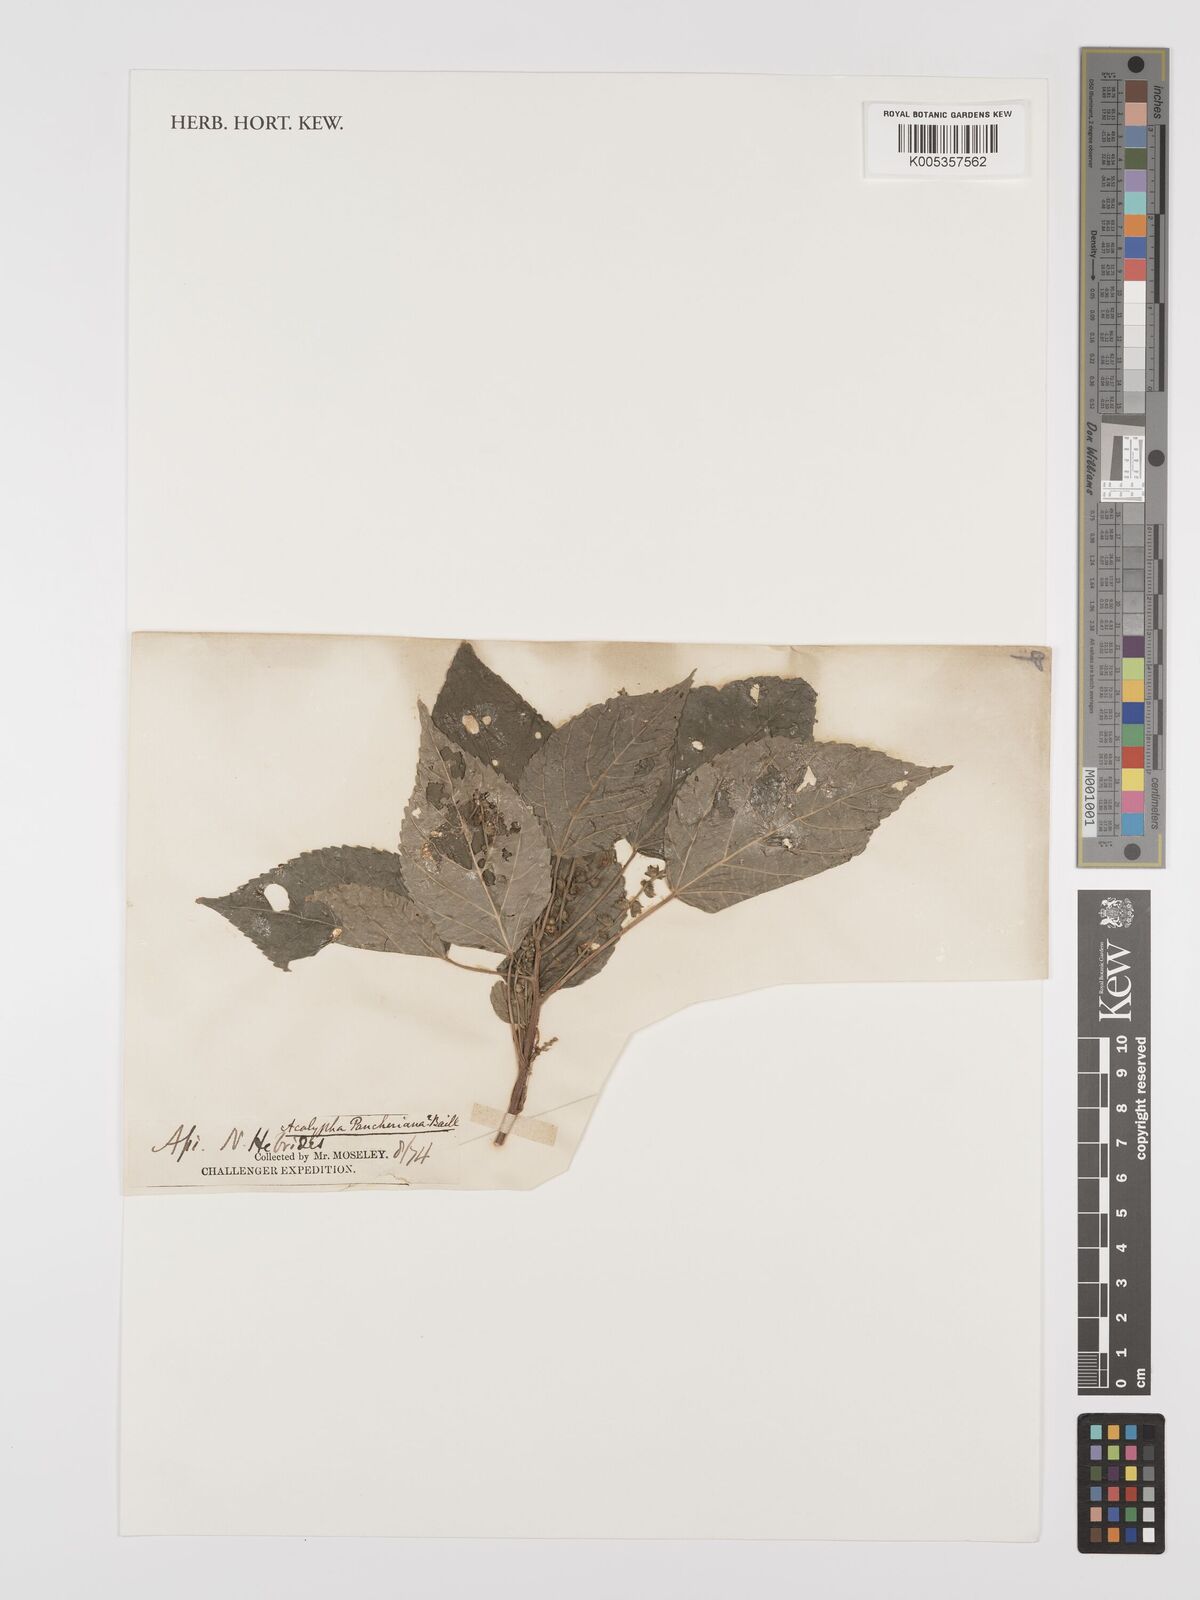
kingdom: Plantae
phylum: Tracheophyta
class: Magnoliopsida
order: Malpighiales
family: Euphorbiaceae
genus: Acalypha
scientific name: Acalypha pancheriana
